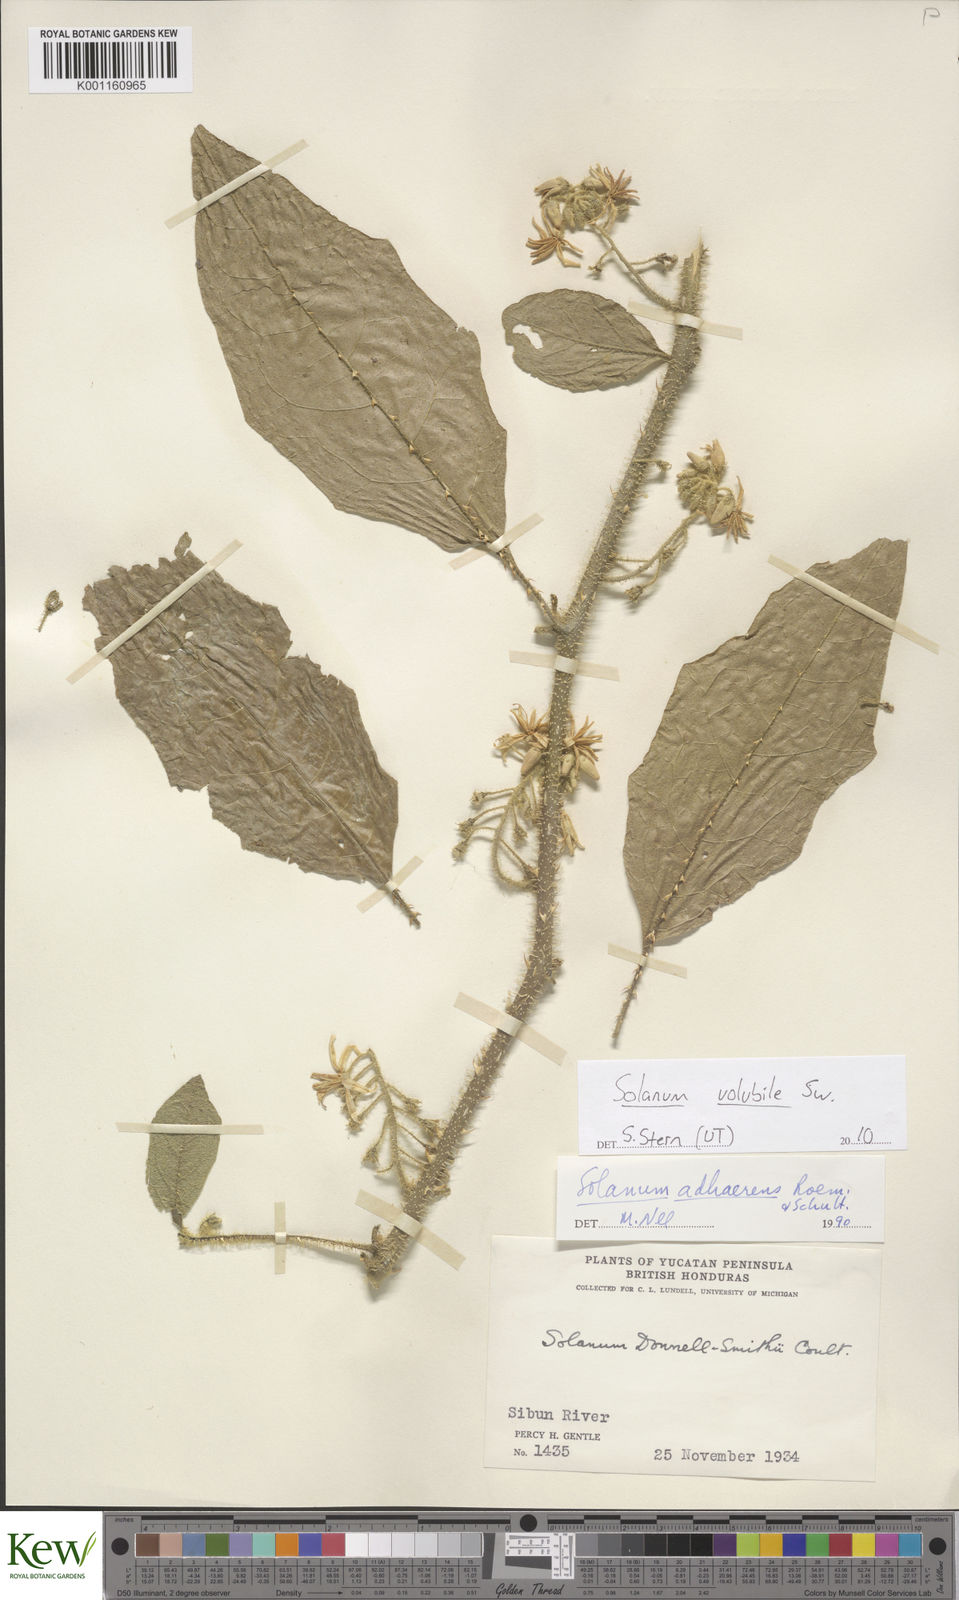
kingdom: Plantae
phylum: Tracheophyta
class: Magnoliopsida
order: Solanales
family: Solanaceae
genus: Solanum
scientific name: Solanum volubile
